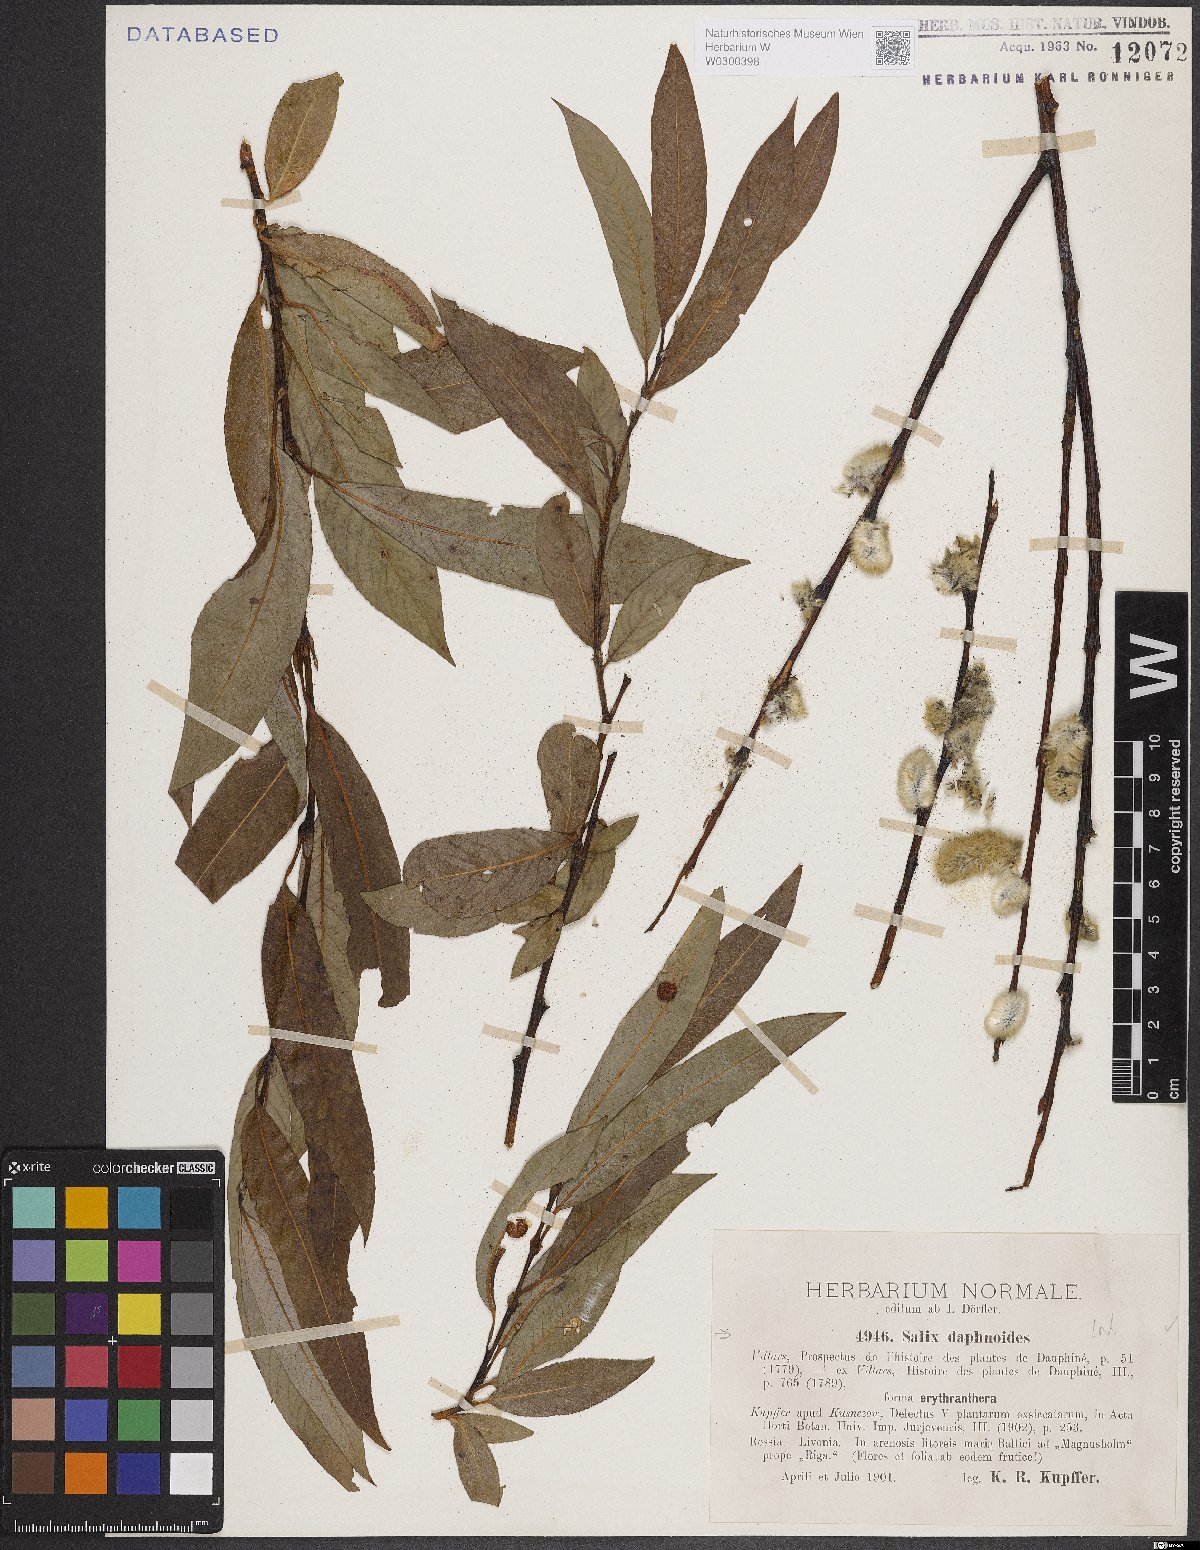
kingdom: Plantae
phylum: Tracheophyta
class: Magnoliopsida
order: Malpighiales
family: Salicaceae
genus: Salix
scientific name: Salix daphnoides
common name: European violet-willow
